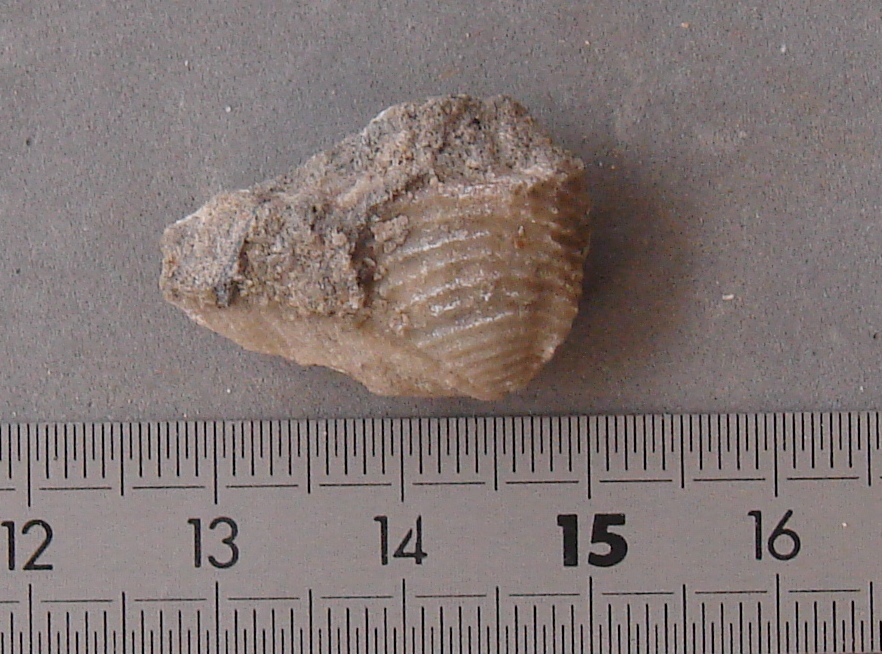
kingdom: Animalia
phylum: Mollusca
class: Bivalvia
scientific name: Bivalvia
